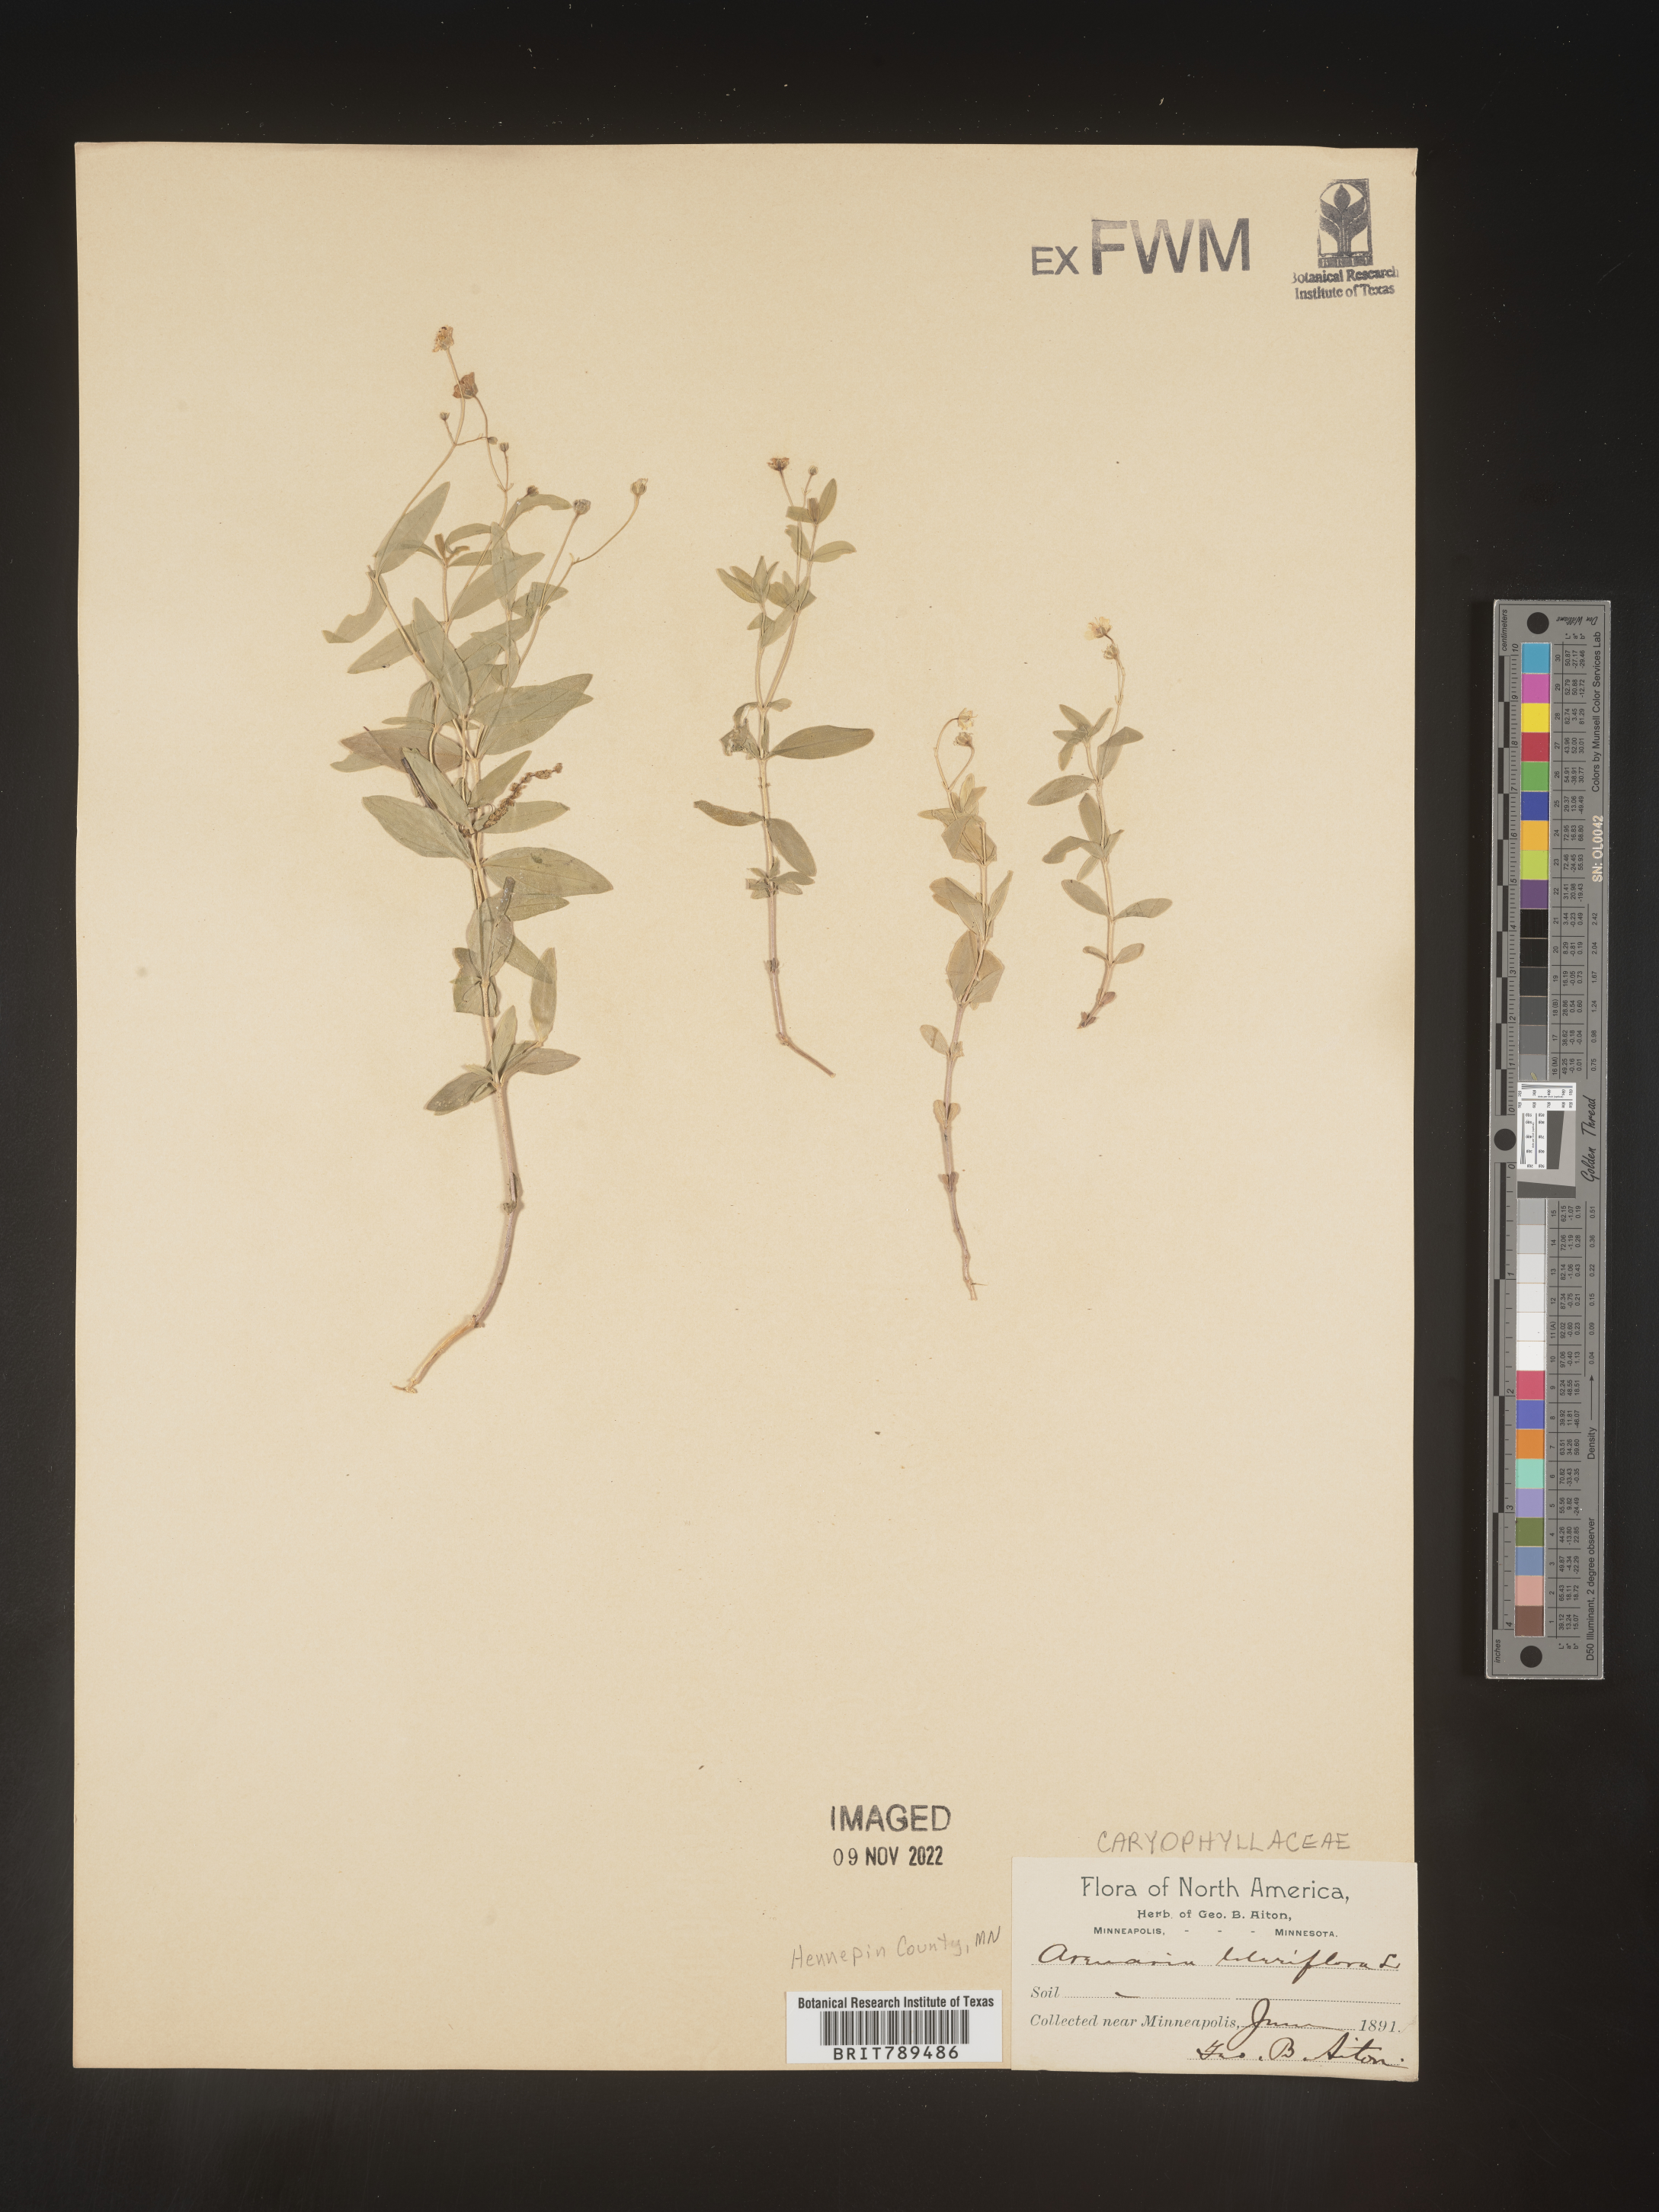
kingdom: Plantae
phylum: Tracheophyta
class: Magnoliopsida
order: Caryophyllales
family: Caryophyllaceae
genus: Arenaria
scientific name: Arenaria
